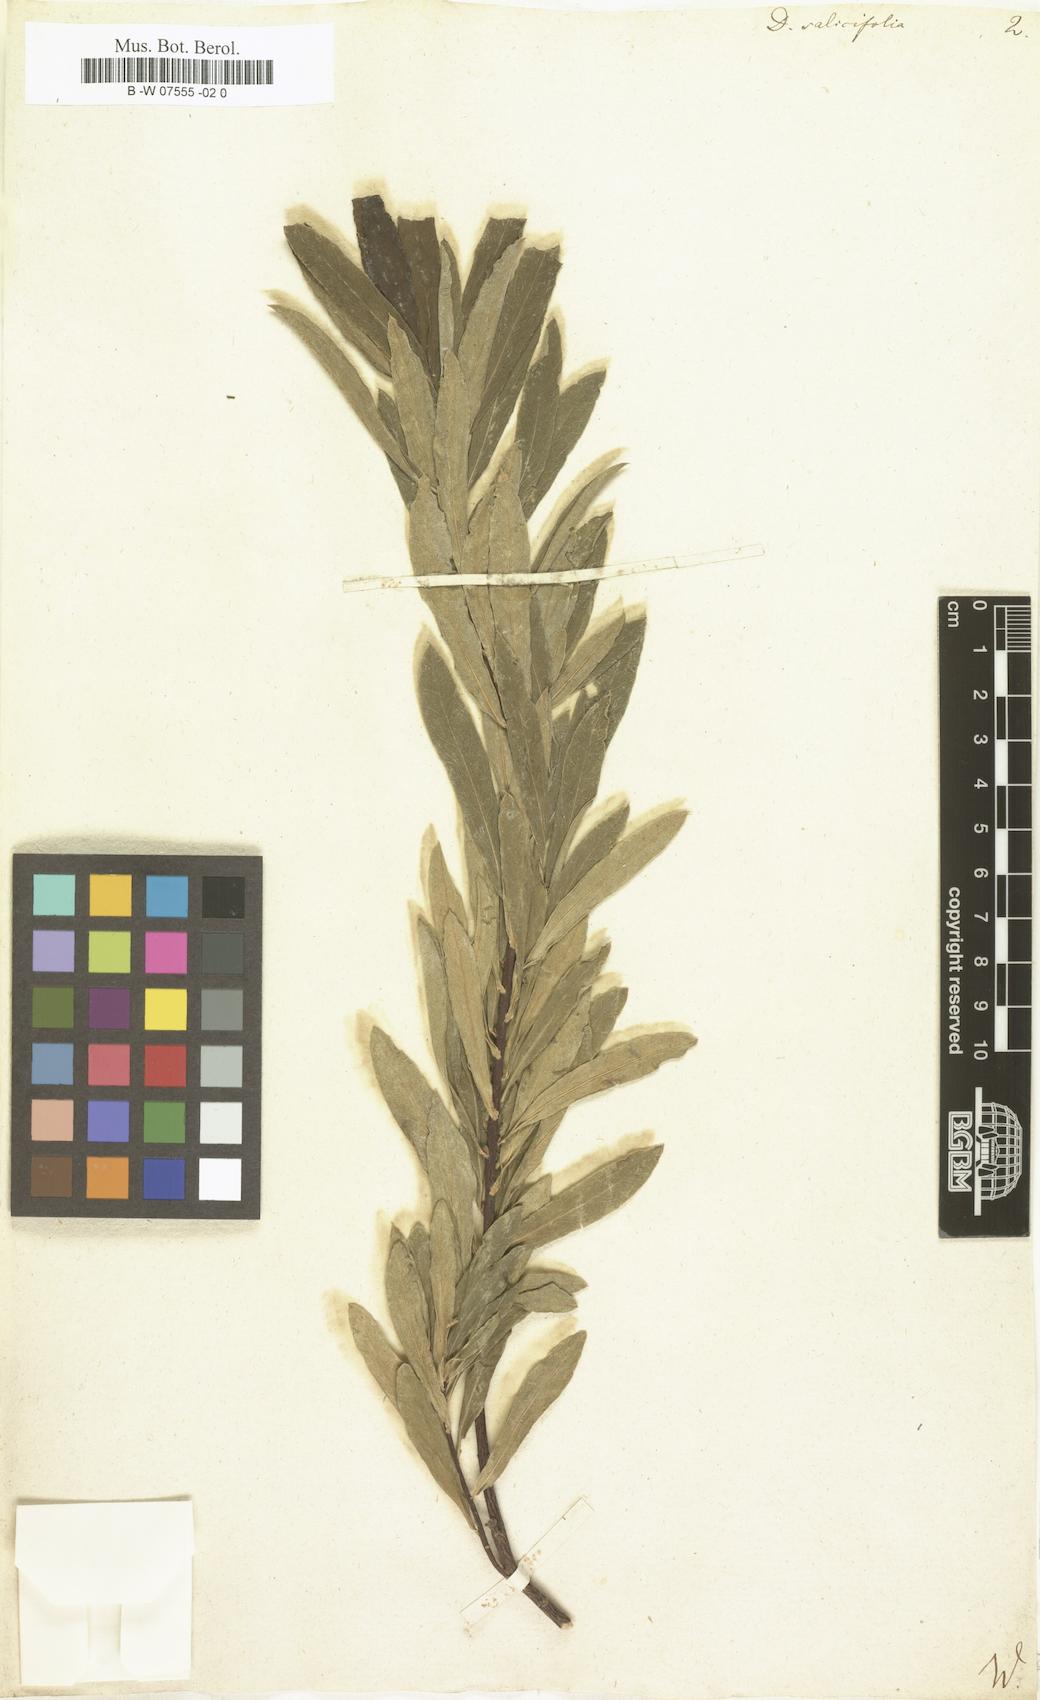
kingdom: Plantae
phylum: Tracheophyta
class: Magnoliopsida
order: Malvales
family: Thymelaeaceae
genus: Daphne
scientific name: Daphne caucasica
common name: Caucasian daphne
